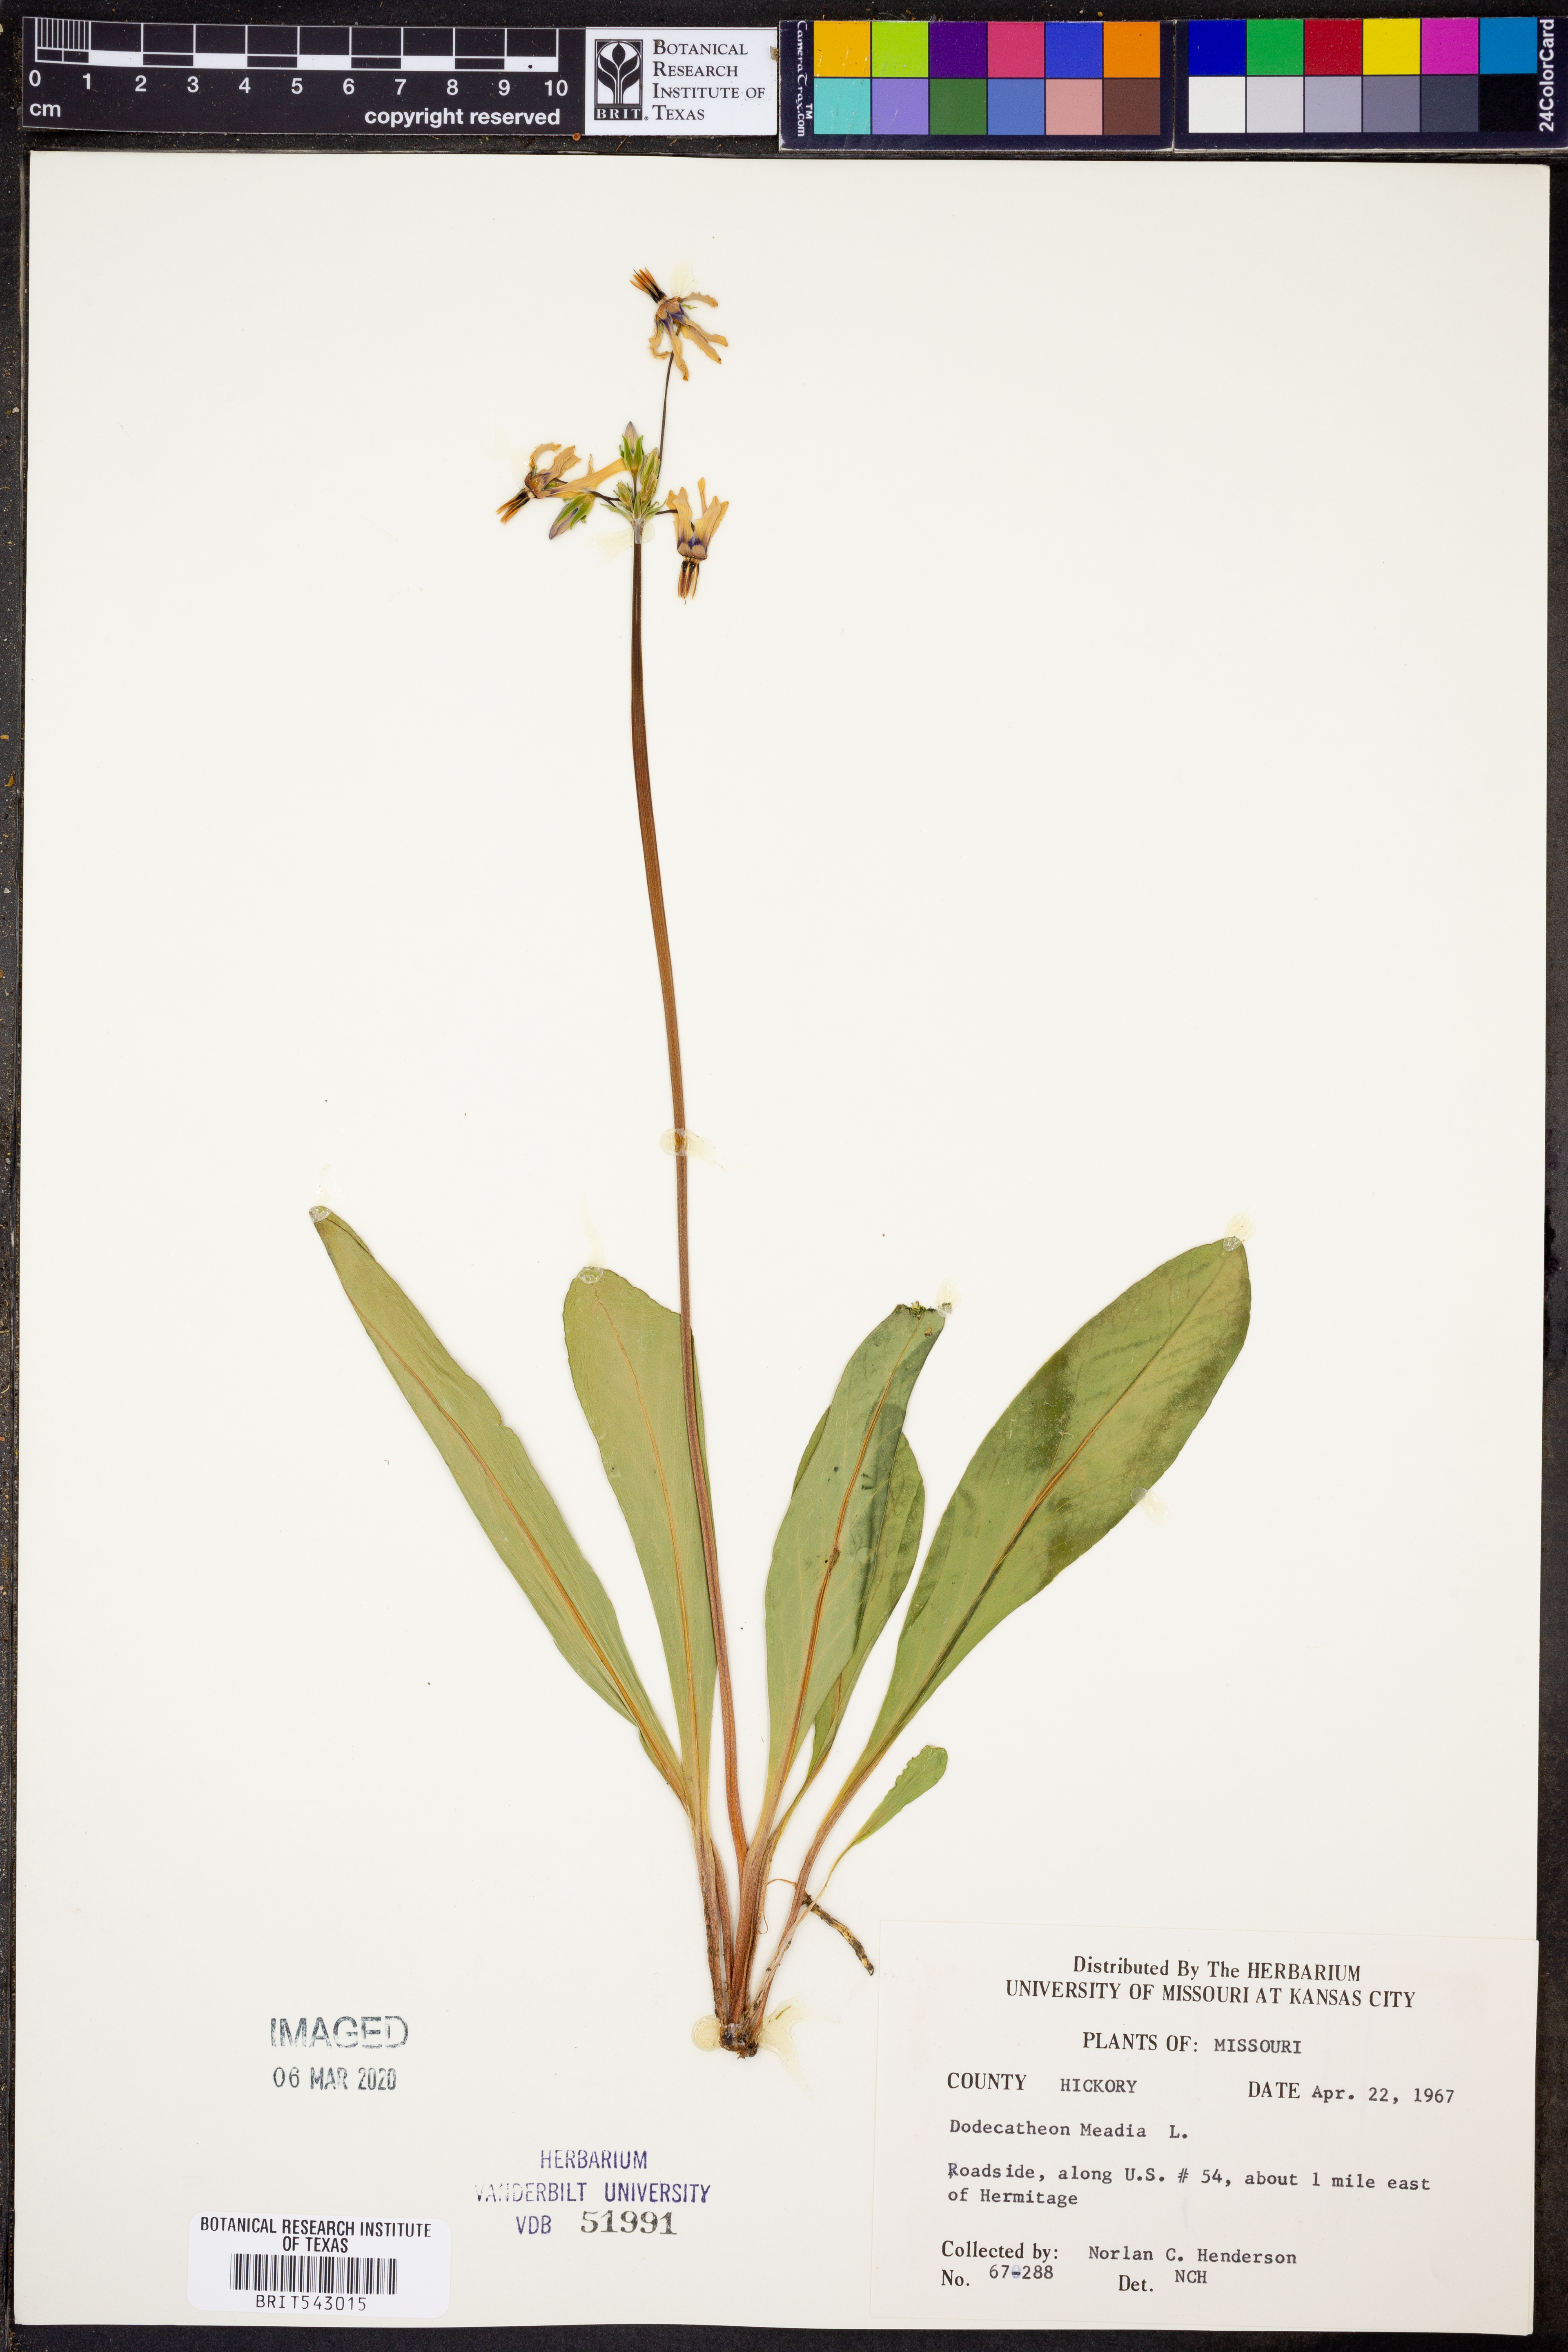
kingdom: Plantae
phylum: Tracheophyta
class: Magnoliopsida
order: Ericales
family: Primulaceae
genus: Dodecatheon
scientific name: Dodecatheon meadia
